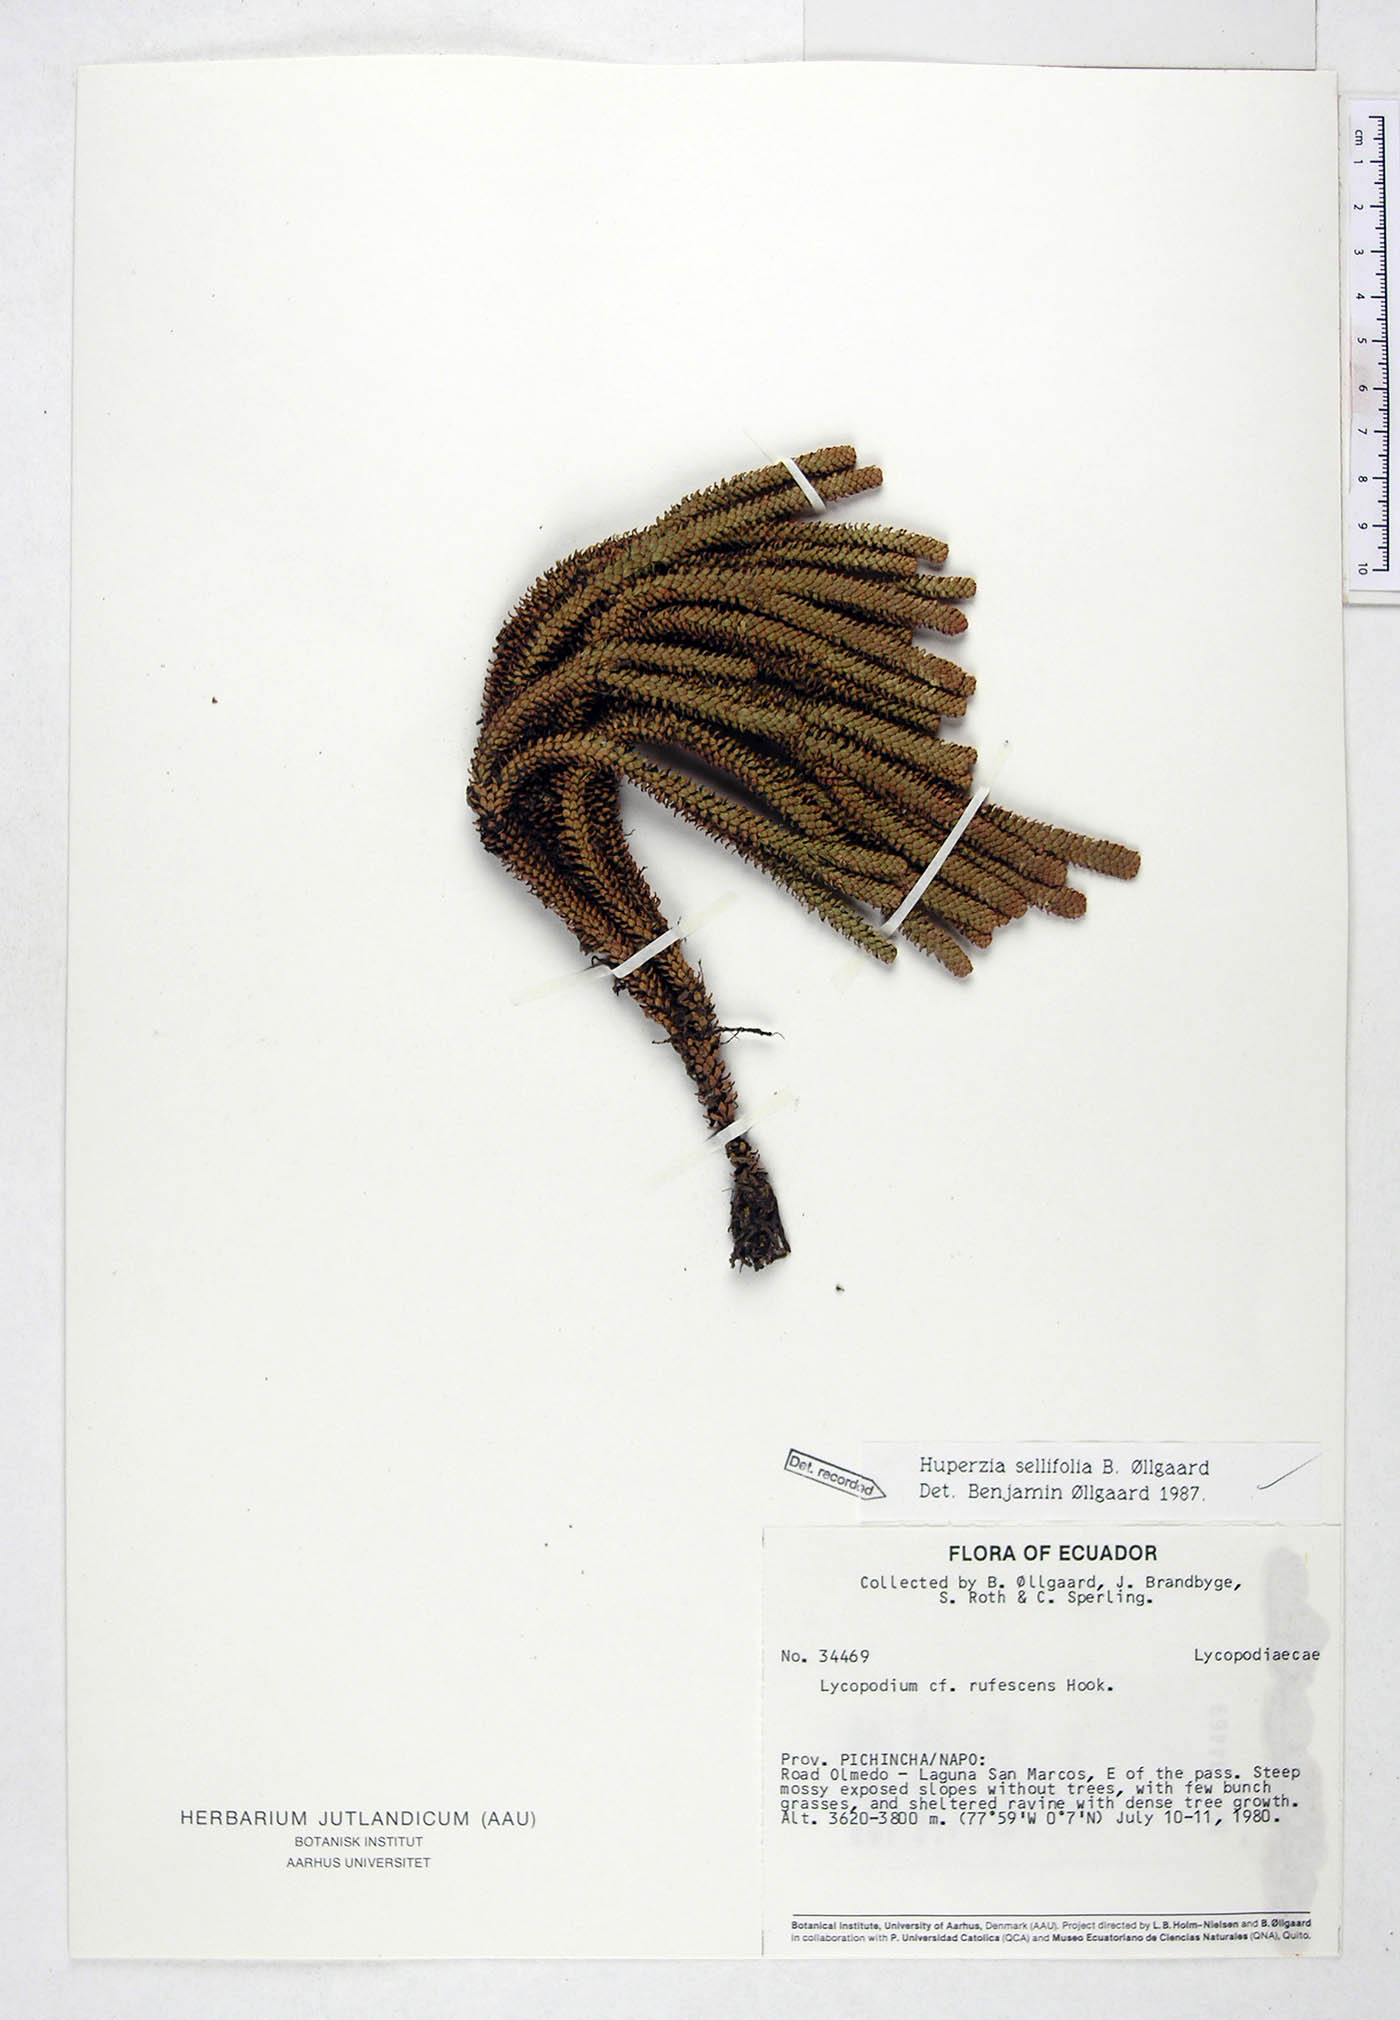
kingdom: Plantae
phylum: Tracheophyta
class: Lycopodiopsida
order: Lycopodiales
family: Lycopodiaceae
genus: Phlegmariurus
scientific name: Phlegmariurus sellifolius
